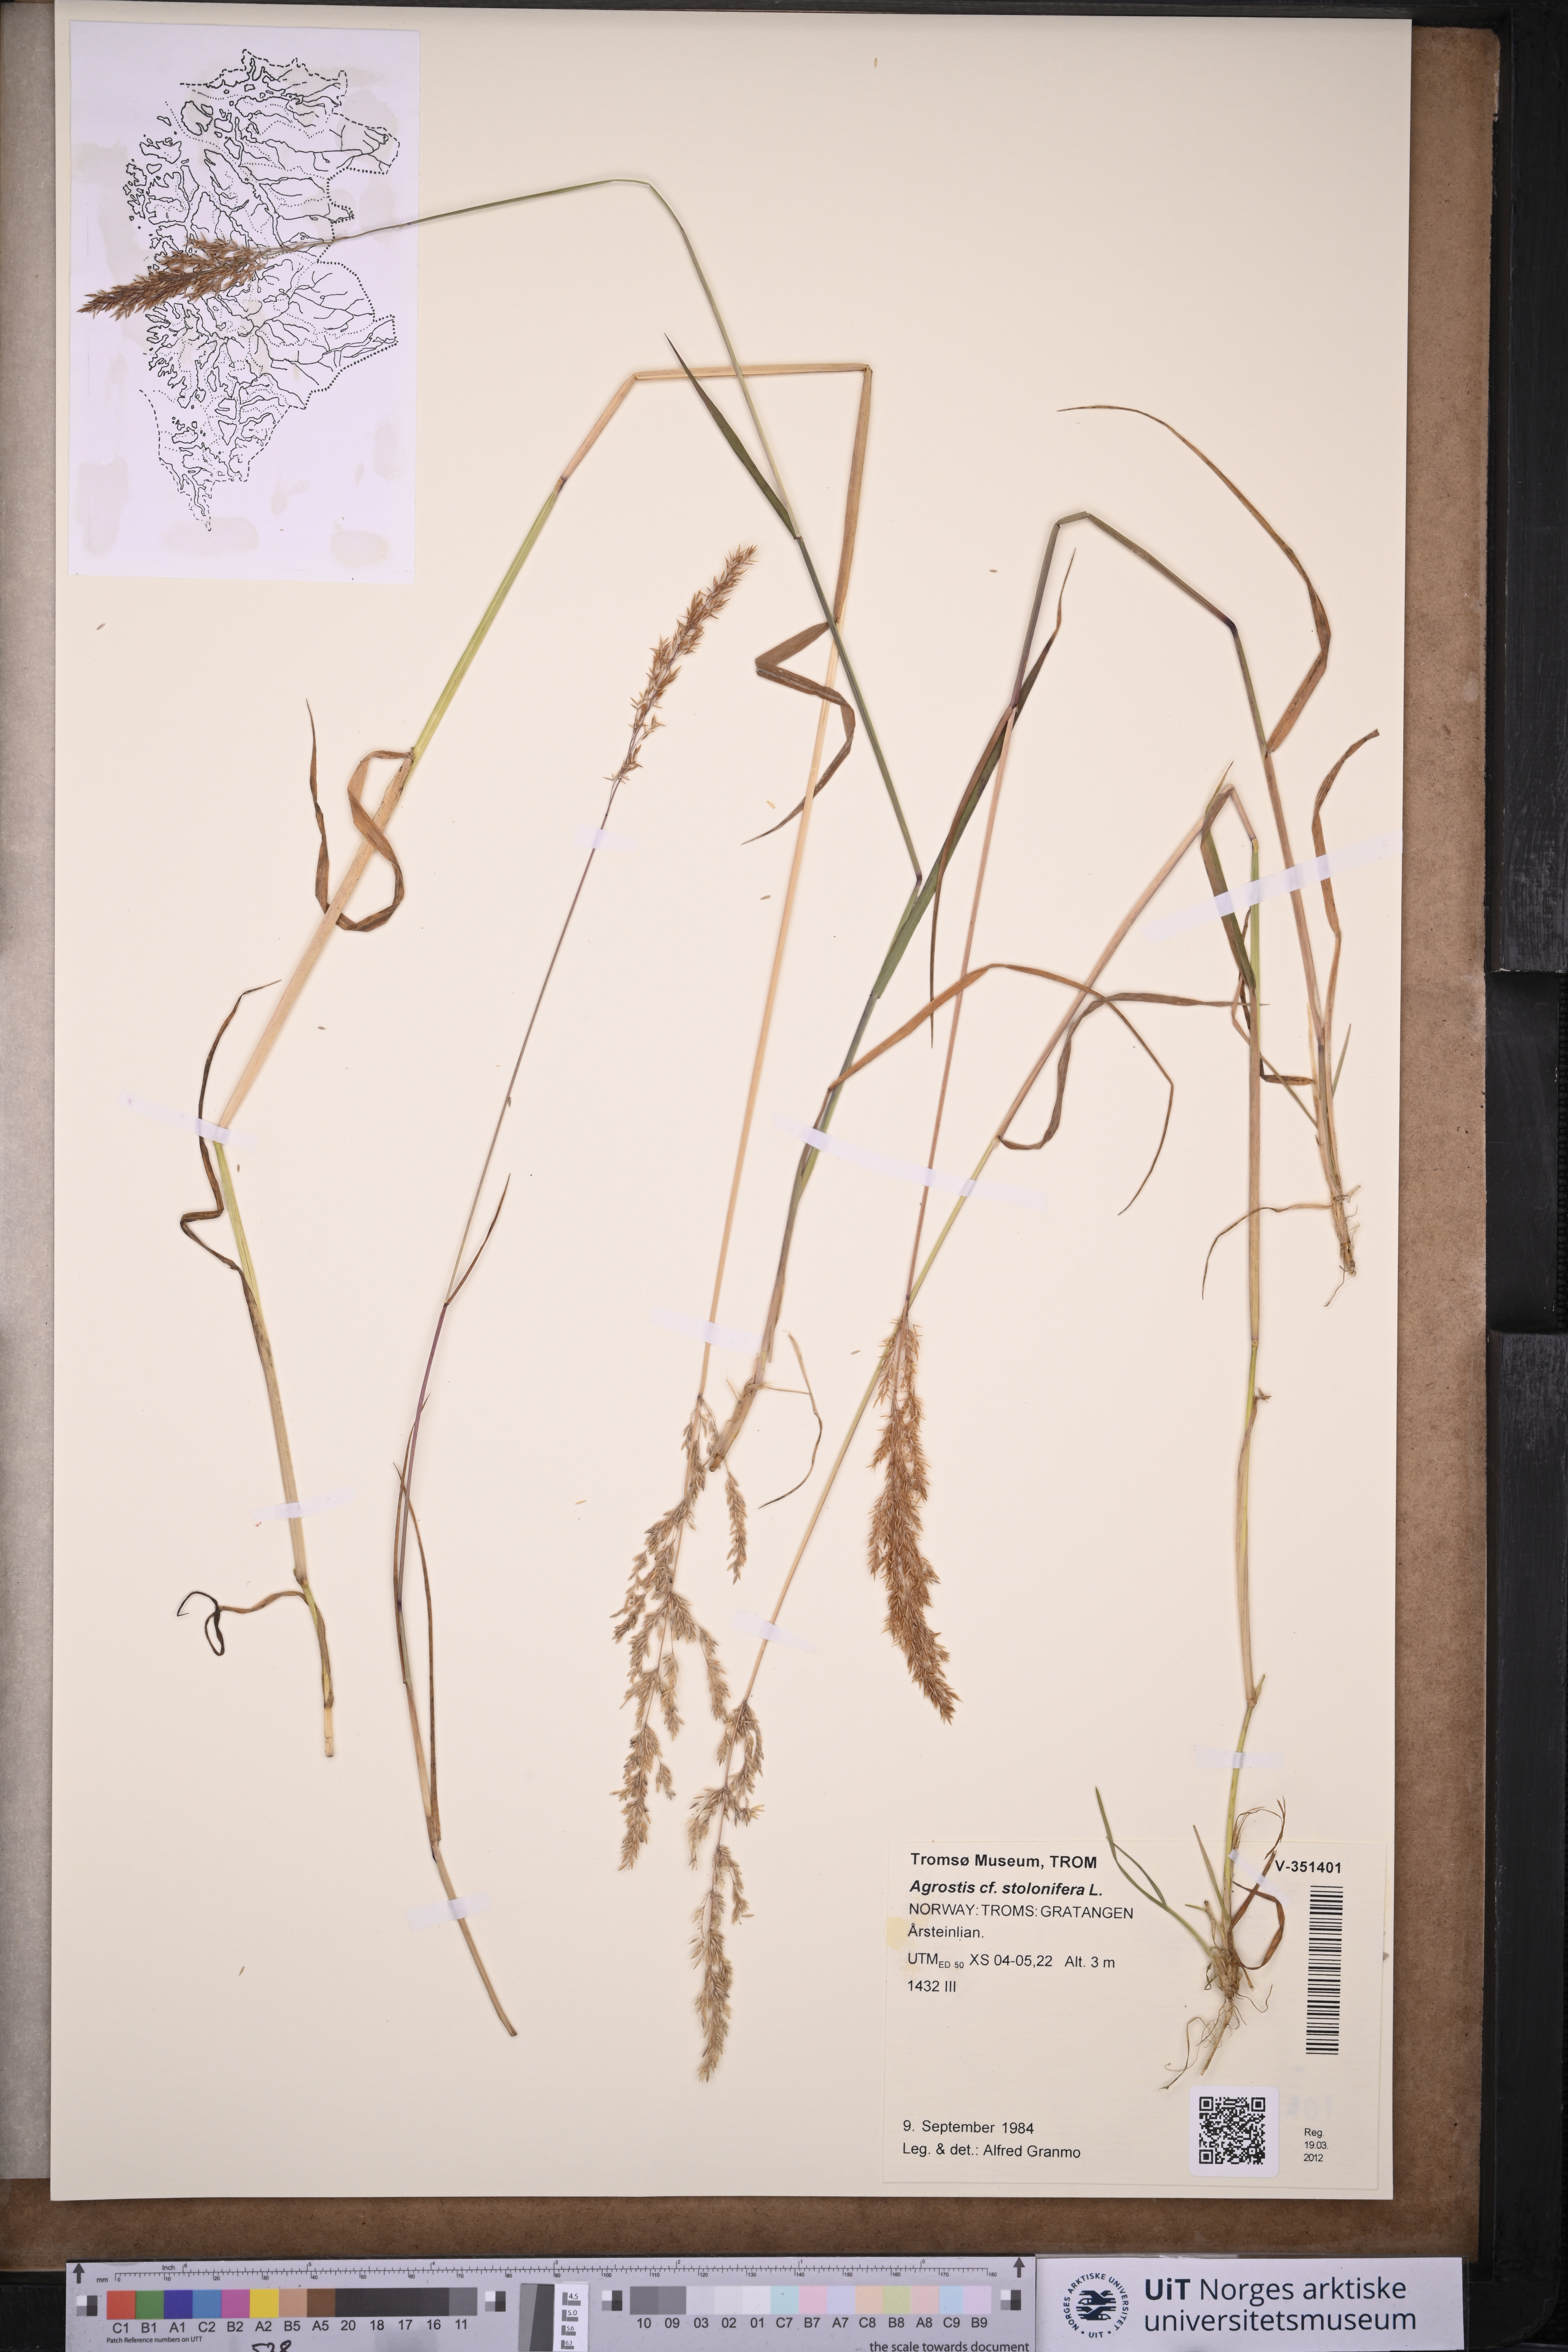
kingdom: Plantae
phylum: Tracheophyta
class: Liliopsida
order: Poales
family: Poaceae
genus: Agrostis
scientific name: Agrostis stolonifera
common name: Creeping bentgrass
